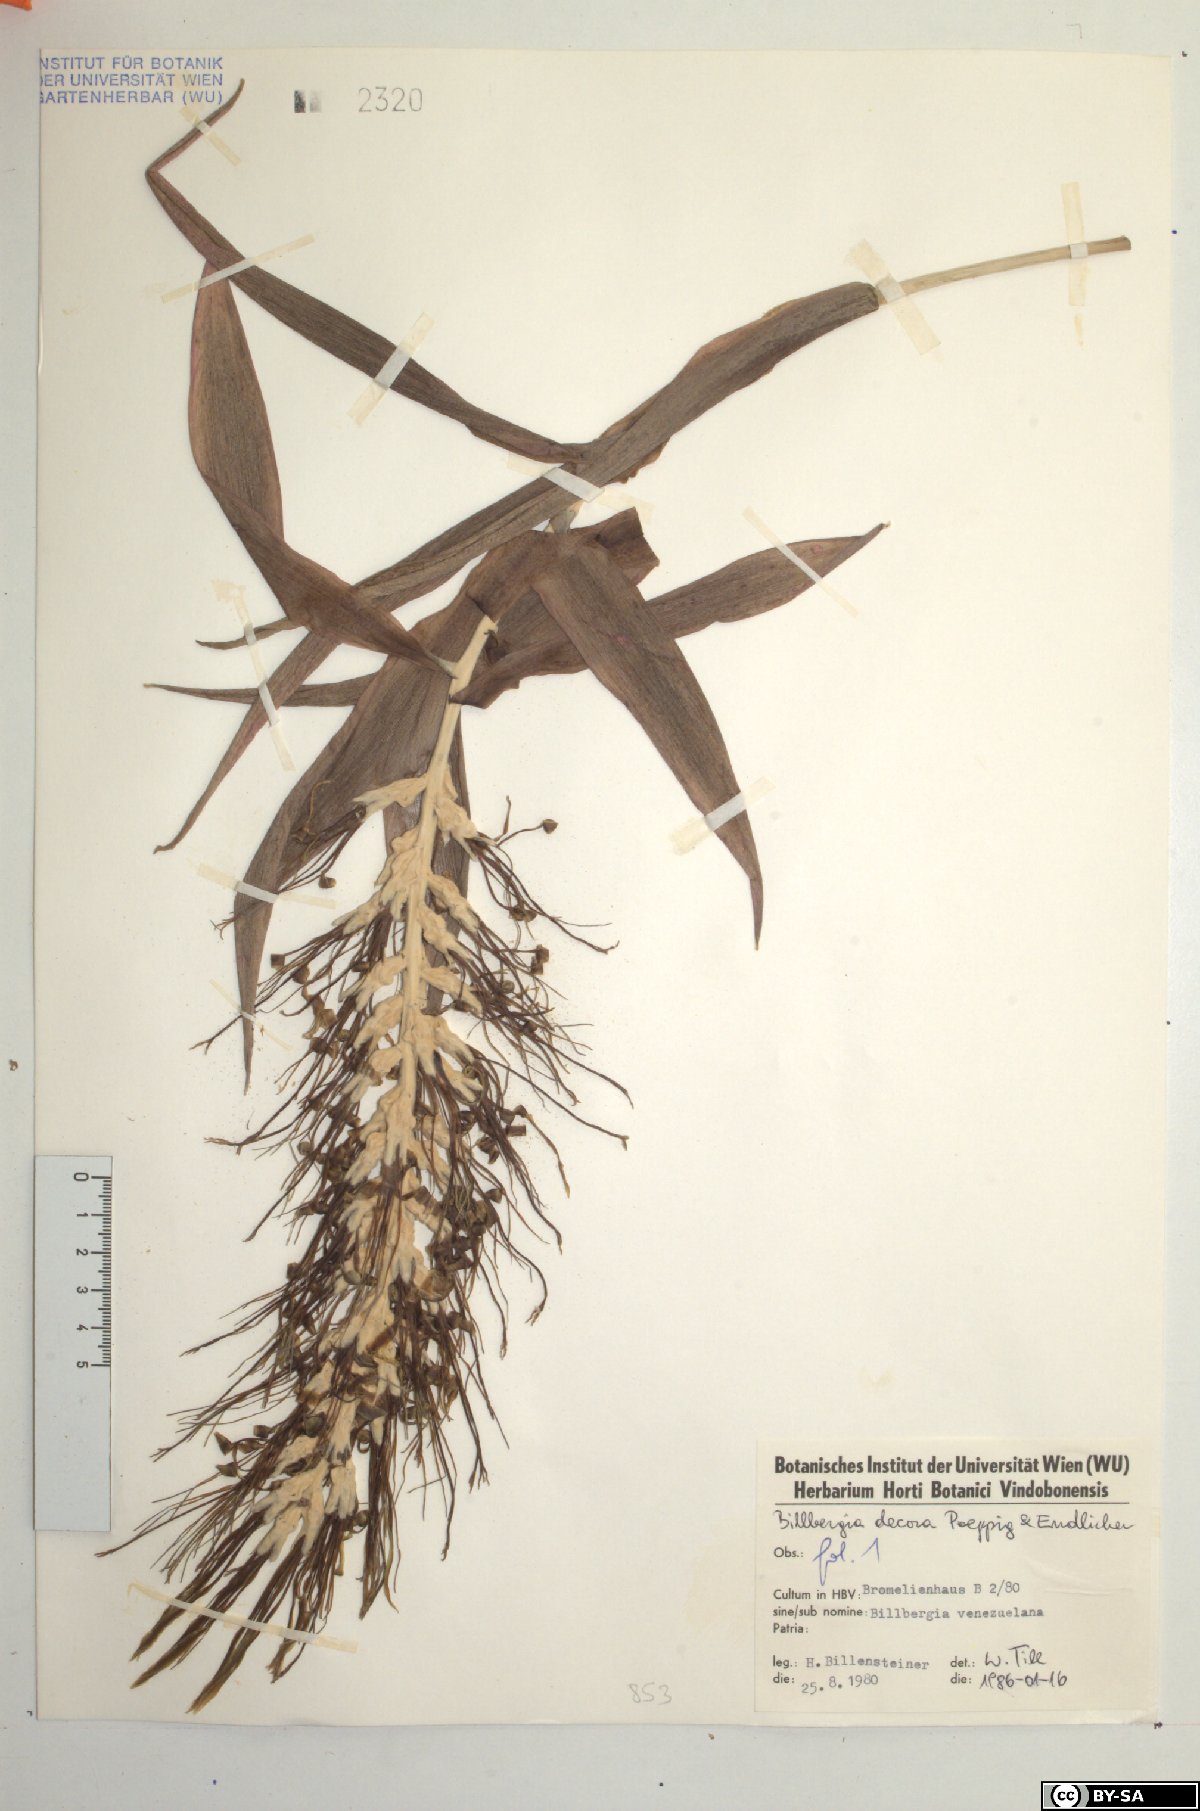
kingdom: Plantae
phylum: Tracheophyta
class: Liliopsida
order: Poales
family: Bromeliaceae
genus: Billbergia
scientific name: Billbergia decora
